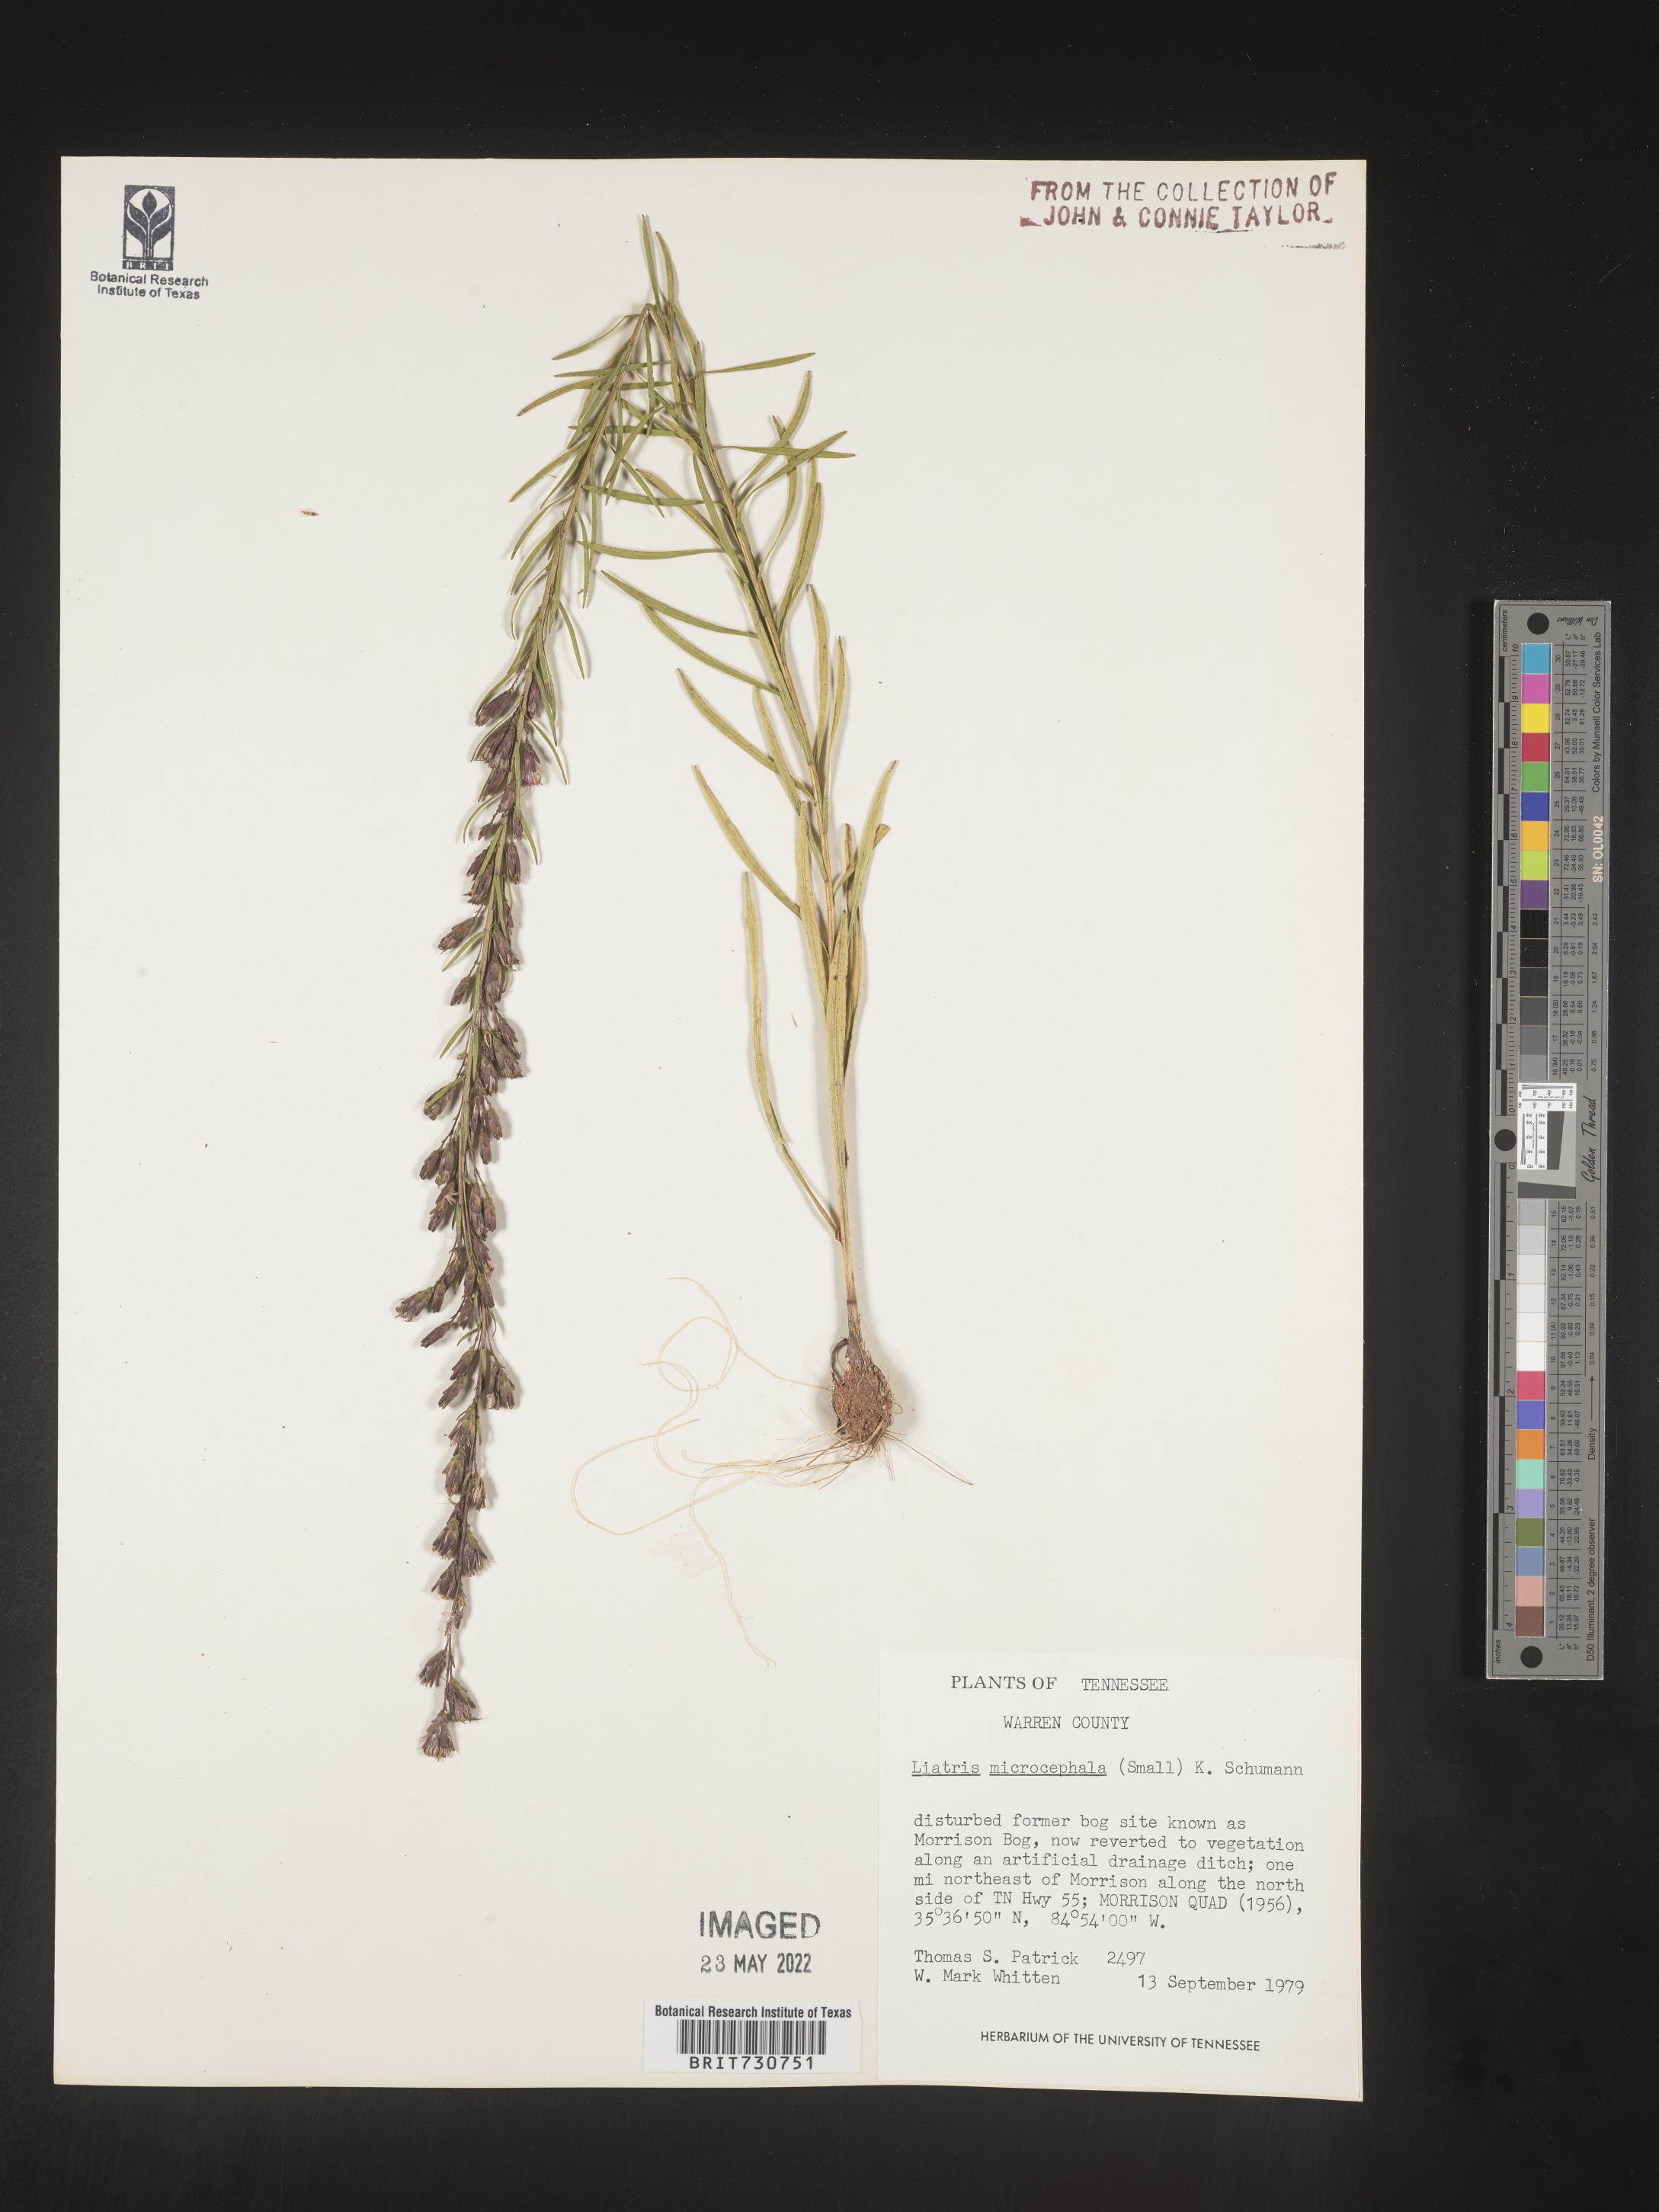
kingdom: Plantae
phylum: Tracheophyta
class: Magnoliopsida
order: Asterales
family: Asteraceae
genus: Liatris
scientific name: Liatris microcephala
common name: Small-head gayfeather
